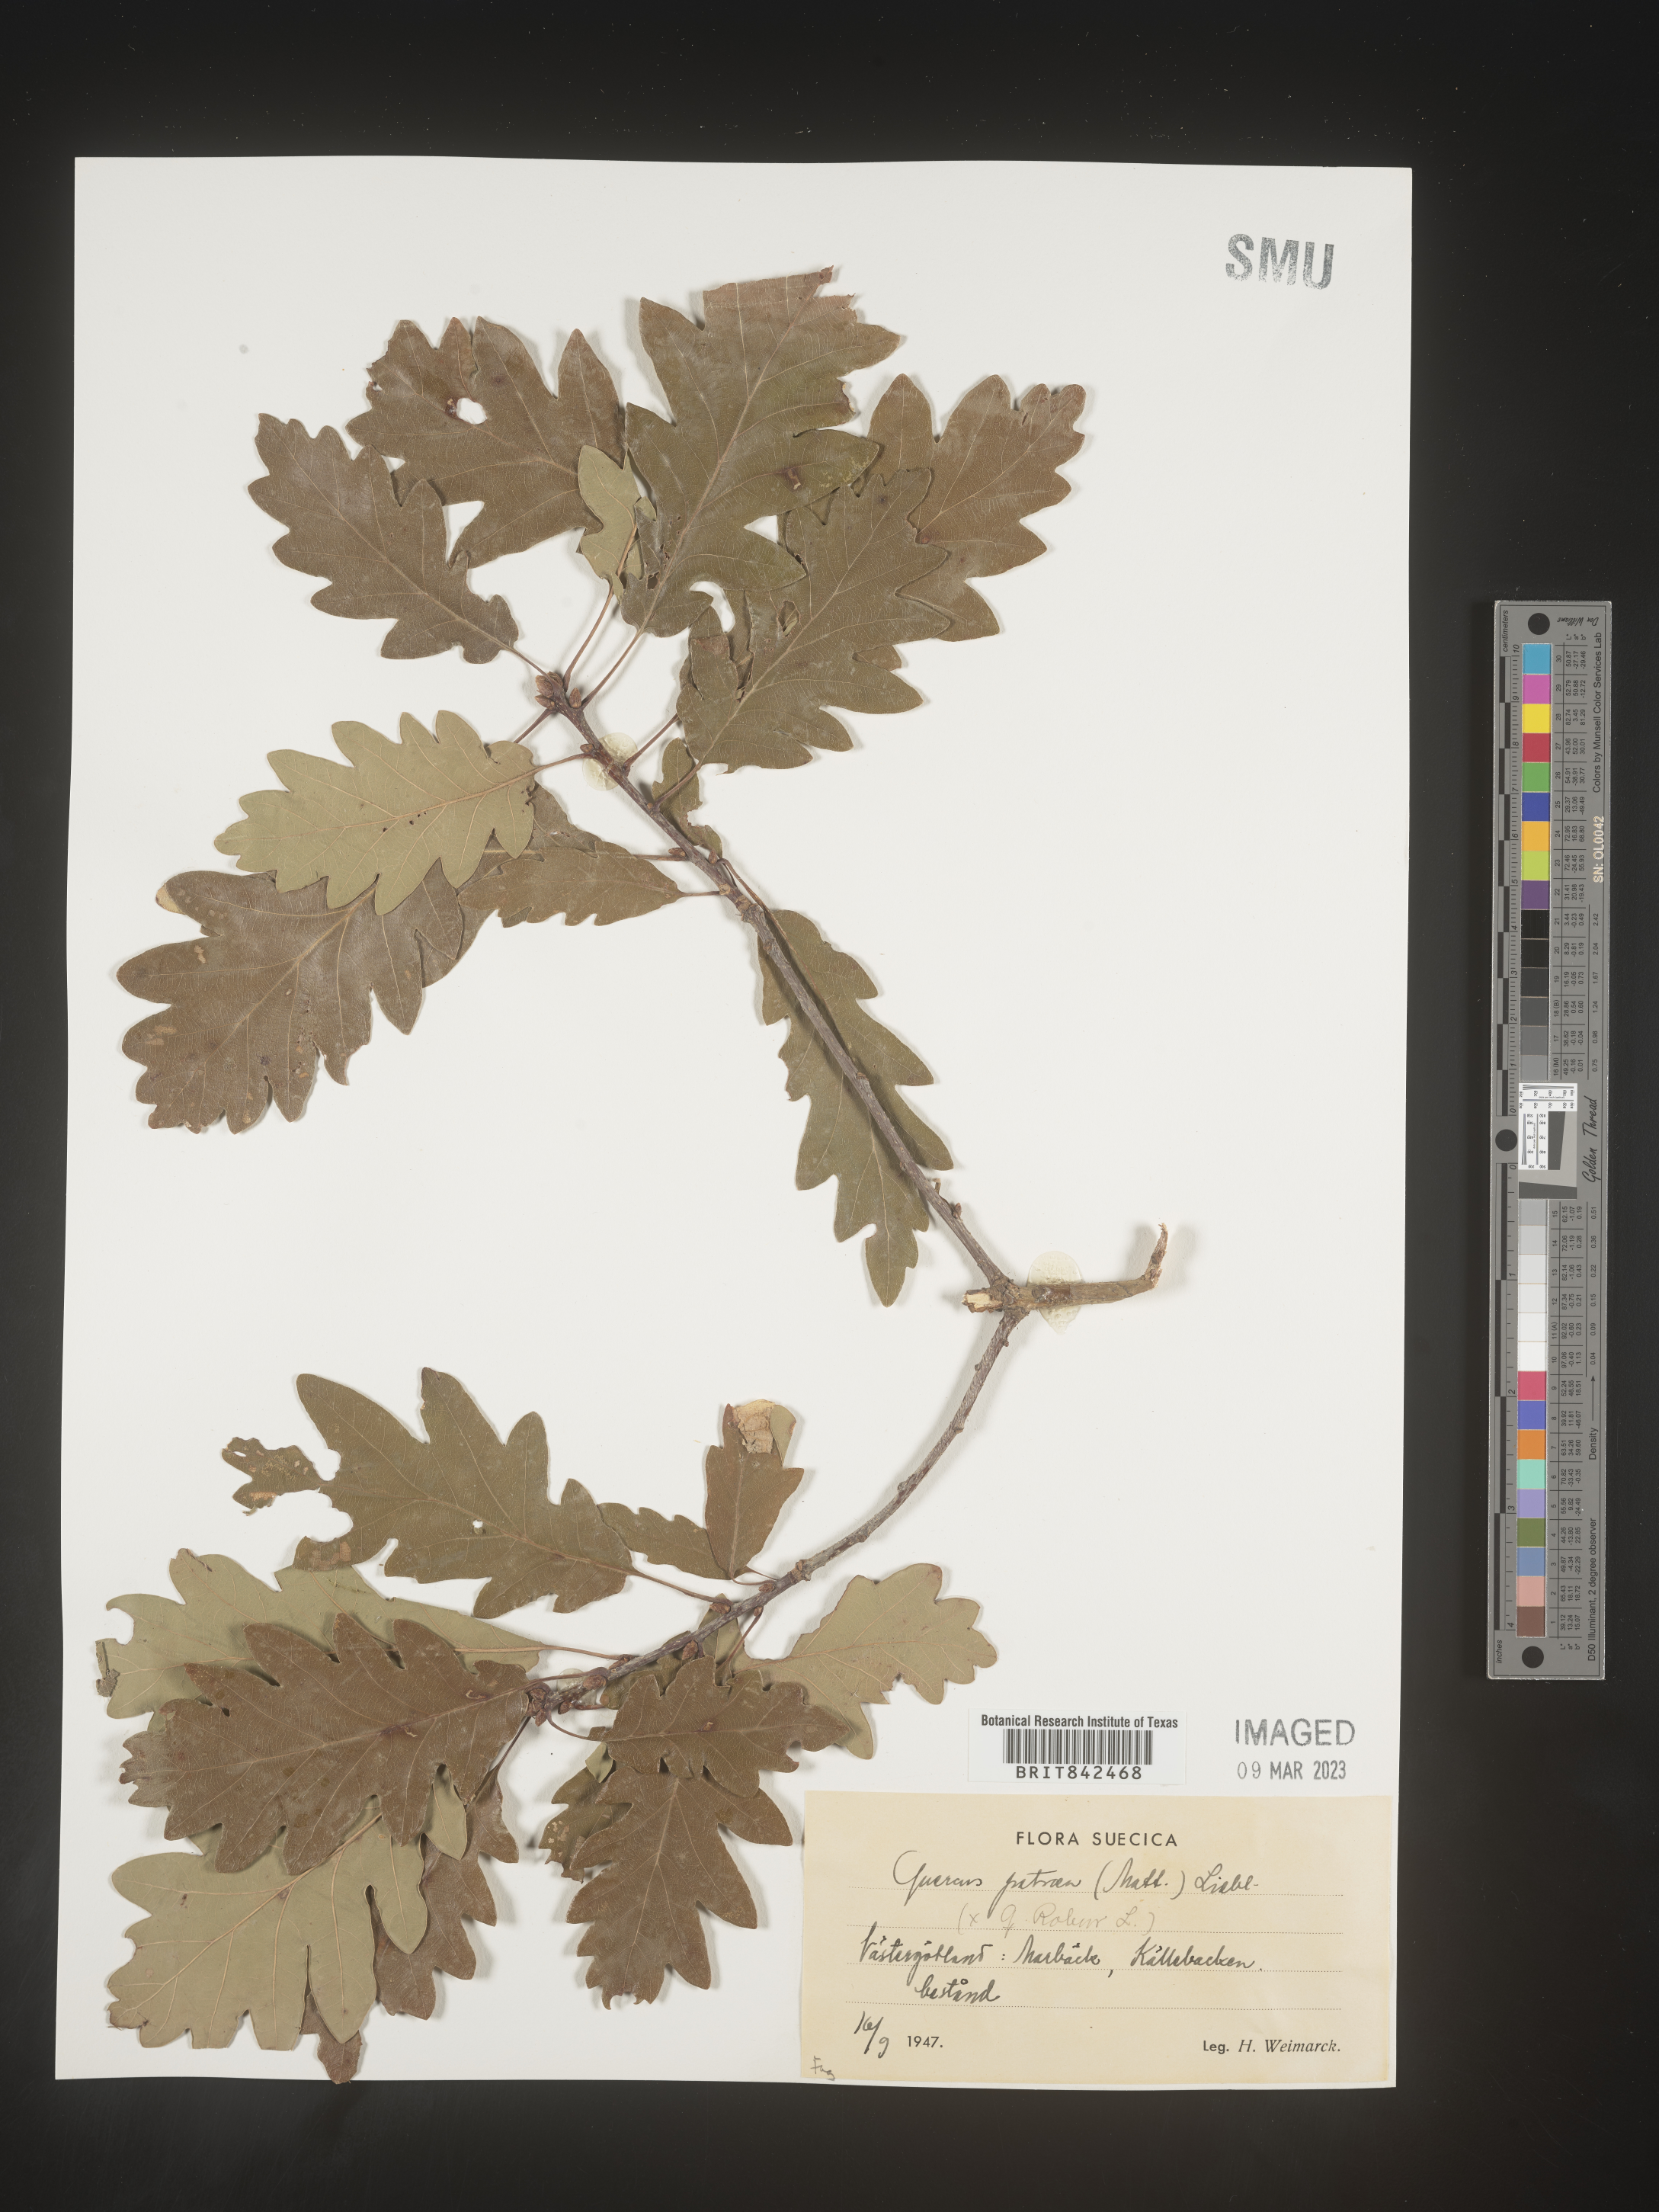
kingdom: Plantae
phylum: Tracheophyta
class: Magnoliopsida
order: Fagales
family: Fagaceae
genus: Quercus
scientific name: Quercus
